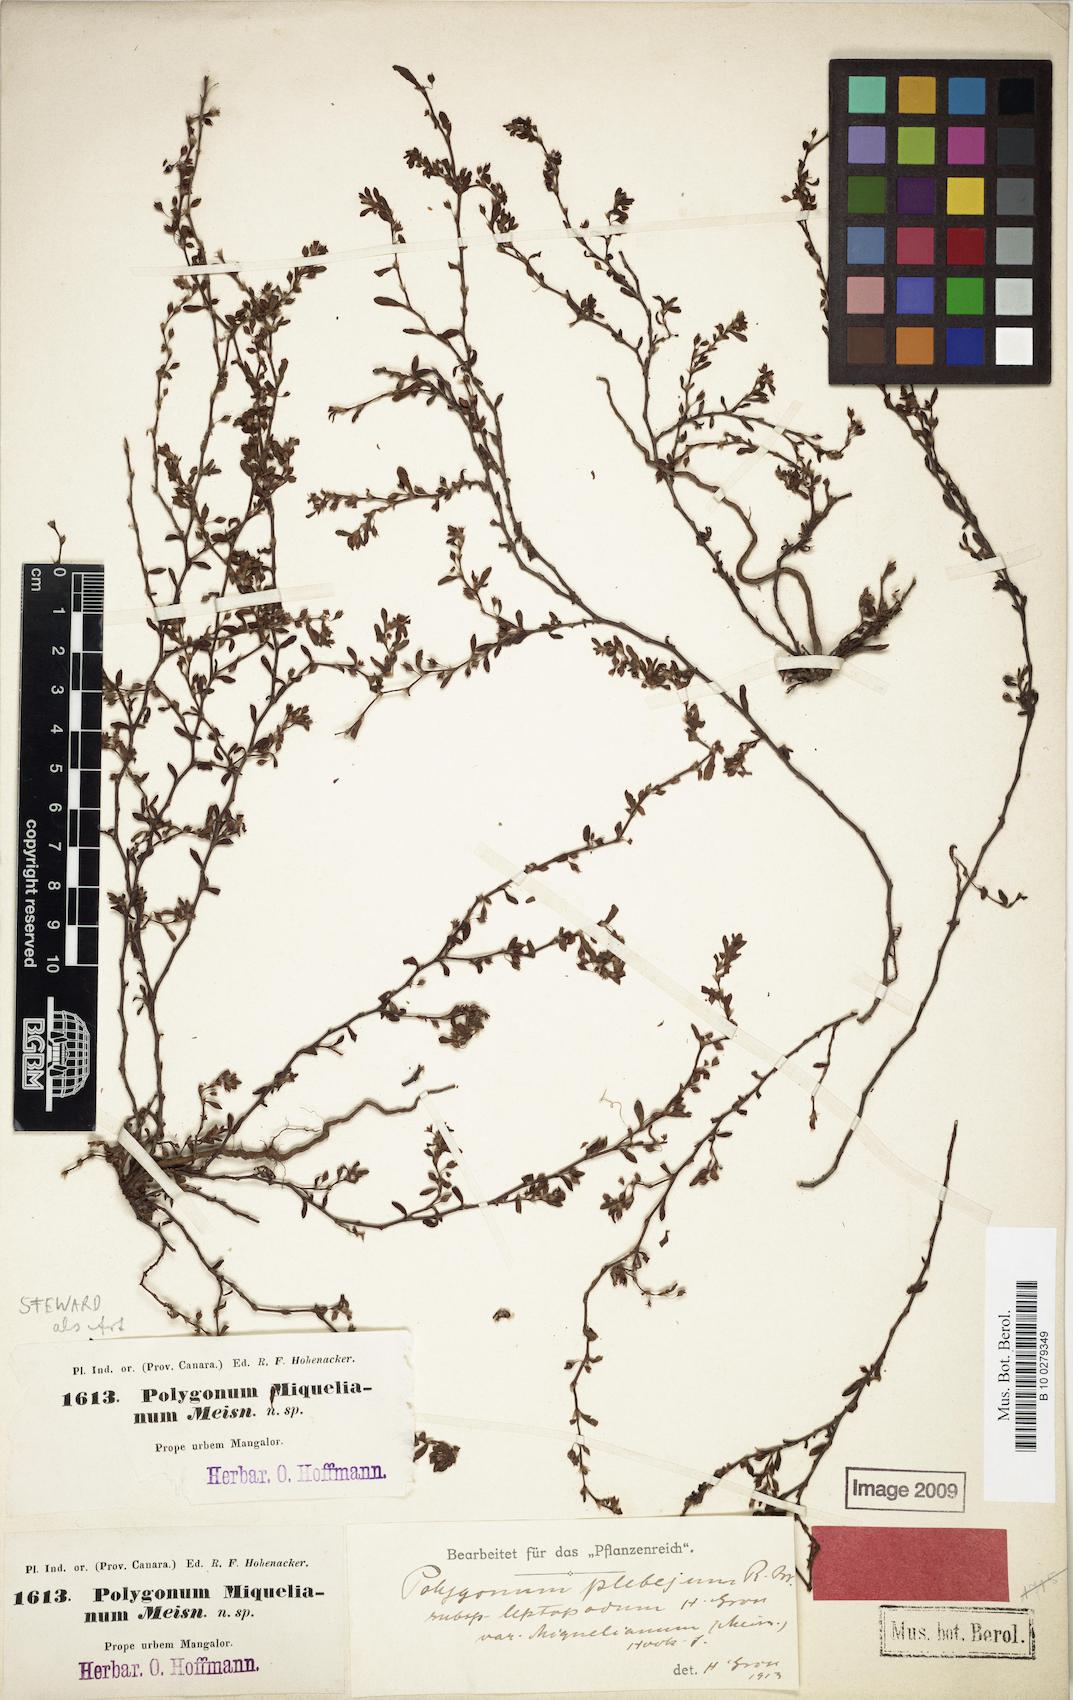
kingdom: Plantae
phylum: Tracheophyta
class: Magnoliopsida
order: Caryophyllales
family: Polygonaceae
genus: Polygonum
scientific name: Polygonum plebeium
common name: Common knotweed
